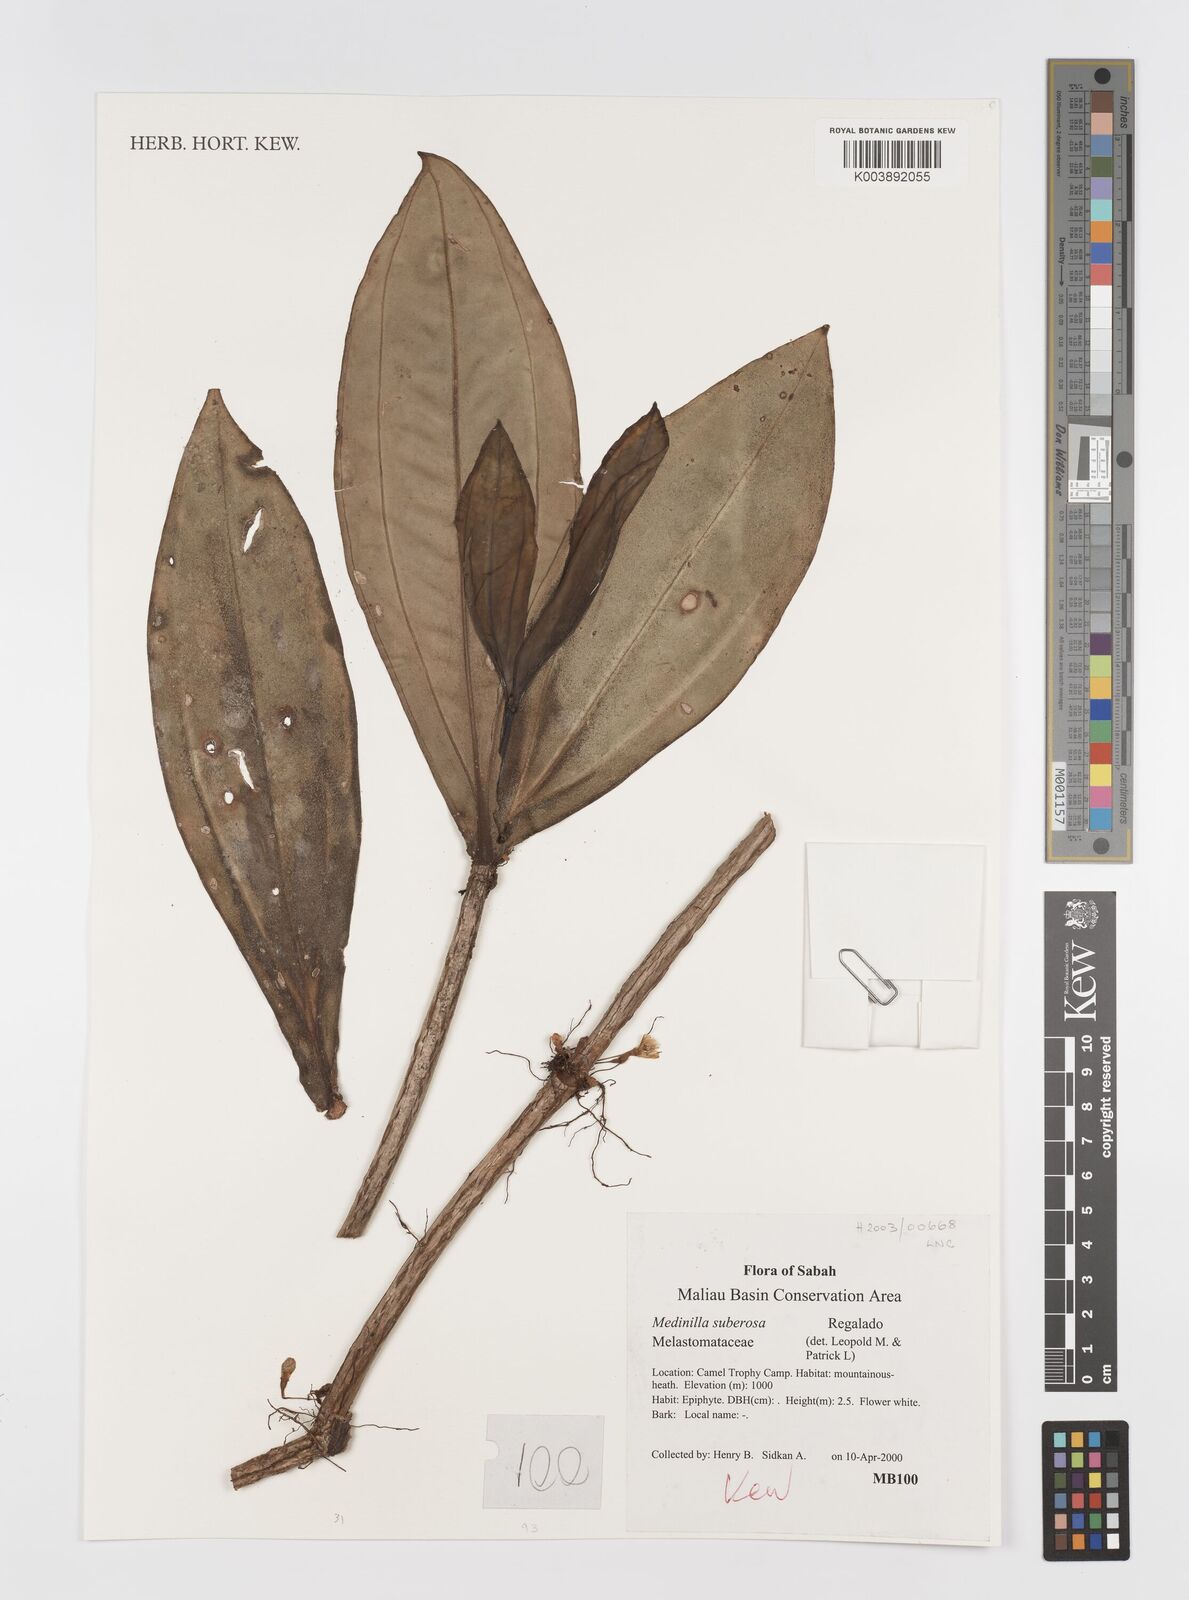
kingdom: Plantae
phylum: Tracheophyta
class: Magnoliopsida
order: Myrtales
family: Melastomataceae
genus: Medinilla
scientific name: Medinilla suberosa
